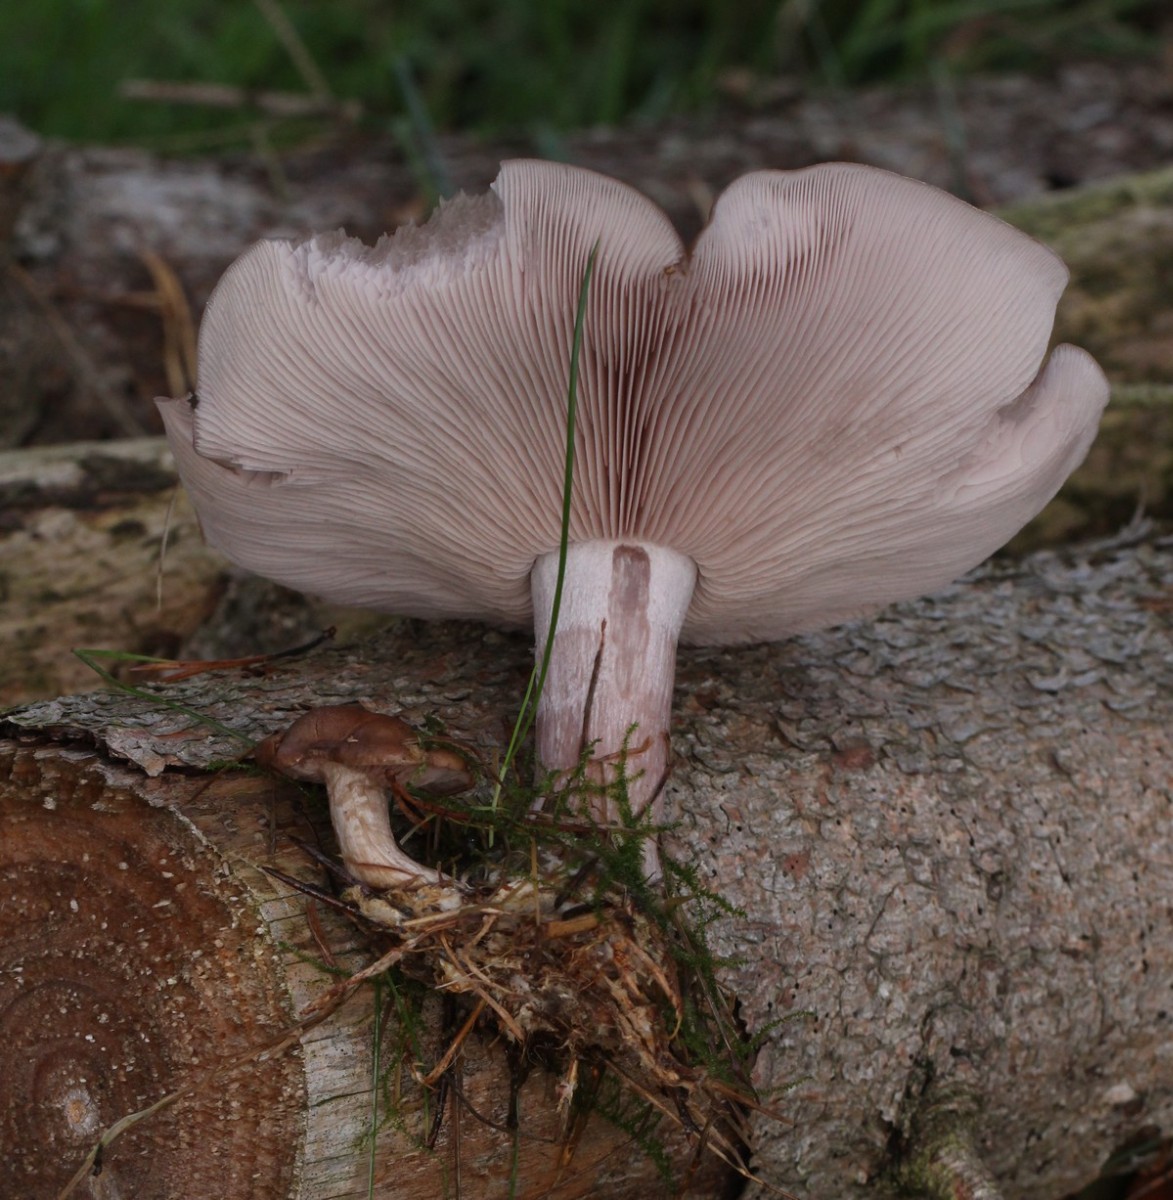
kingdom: Fungi
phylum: Basidiomycota
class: Agaricomycetes
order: Agaricales
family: Tricholomataceae
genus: Lepista
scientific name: Lepista nuda
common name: violet hekseringshat
